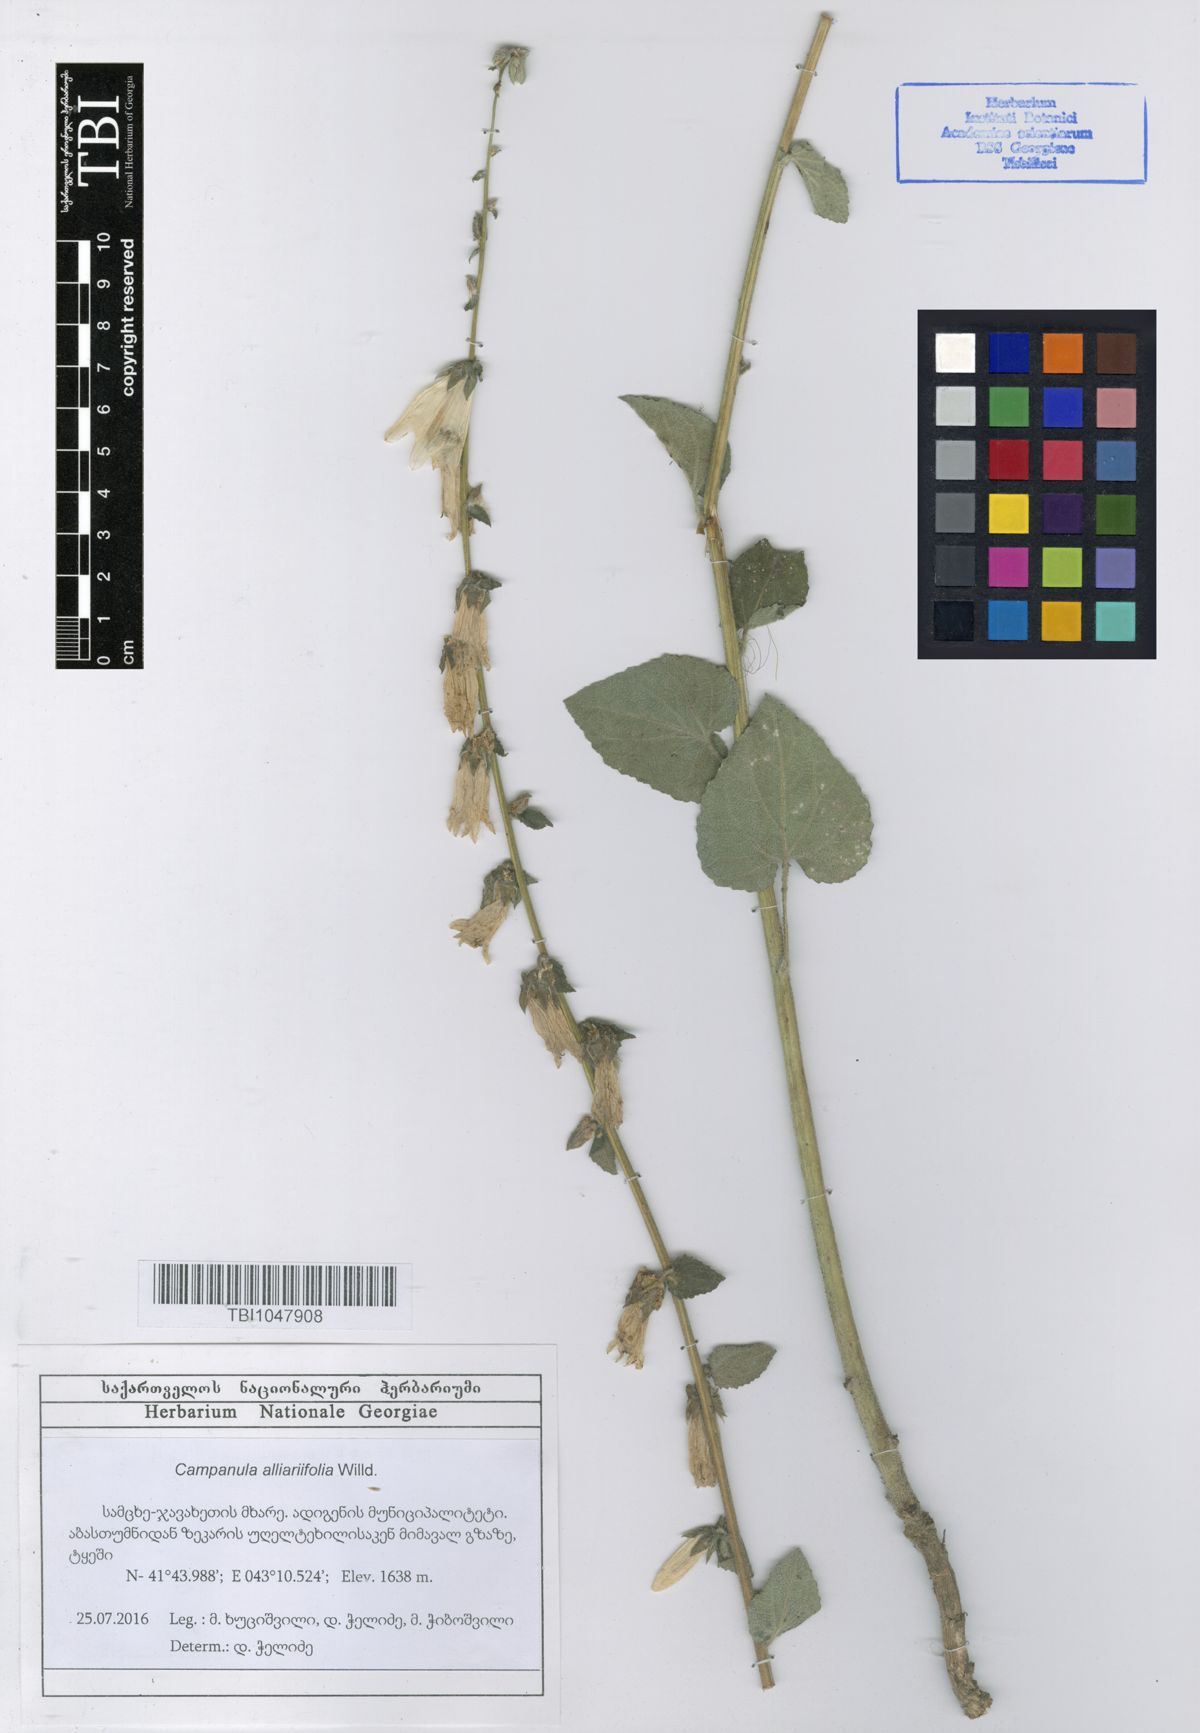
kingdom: Plantae
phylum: Tracheophyta
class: Magnoliopsida
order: Asterales
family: Campanulaceae
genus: Campanula
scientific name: Campanula alliariifolia
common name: Cornish bellflower
